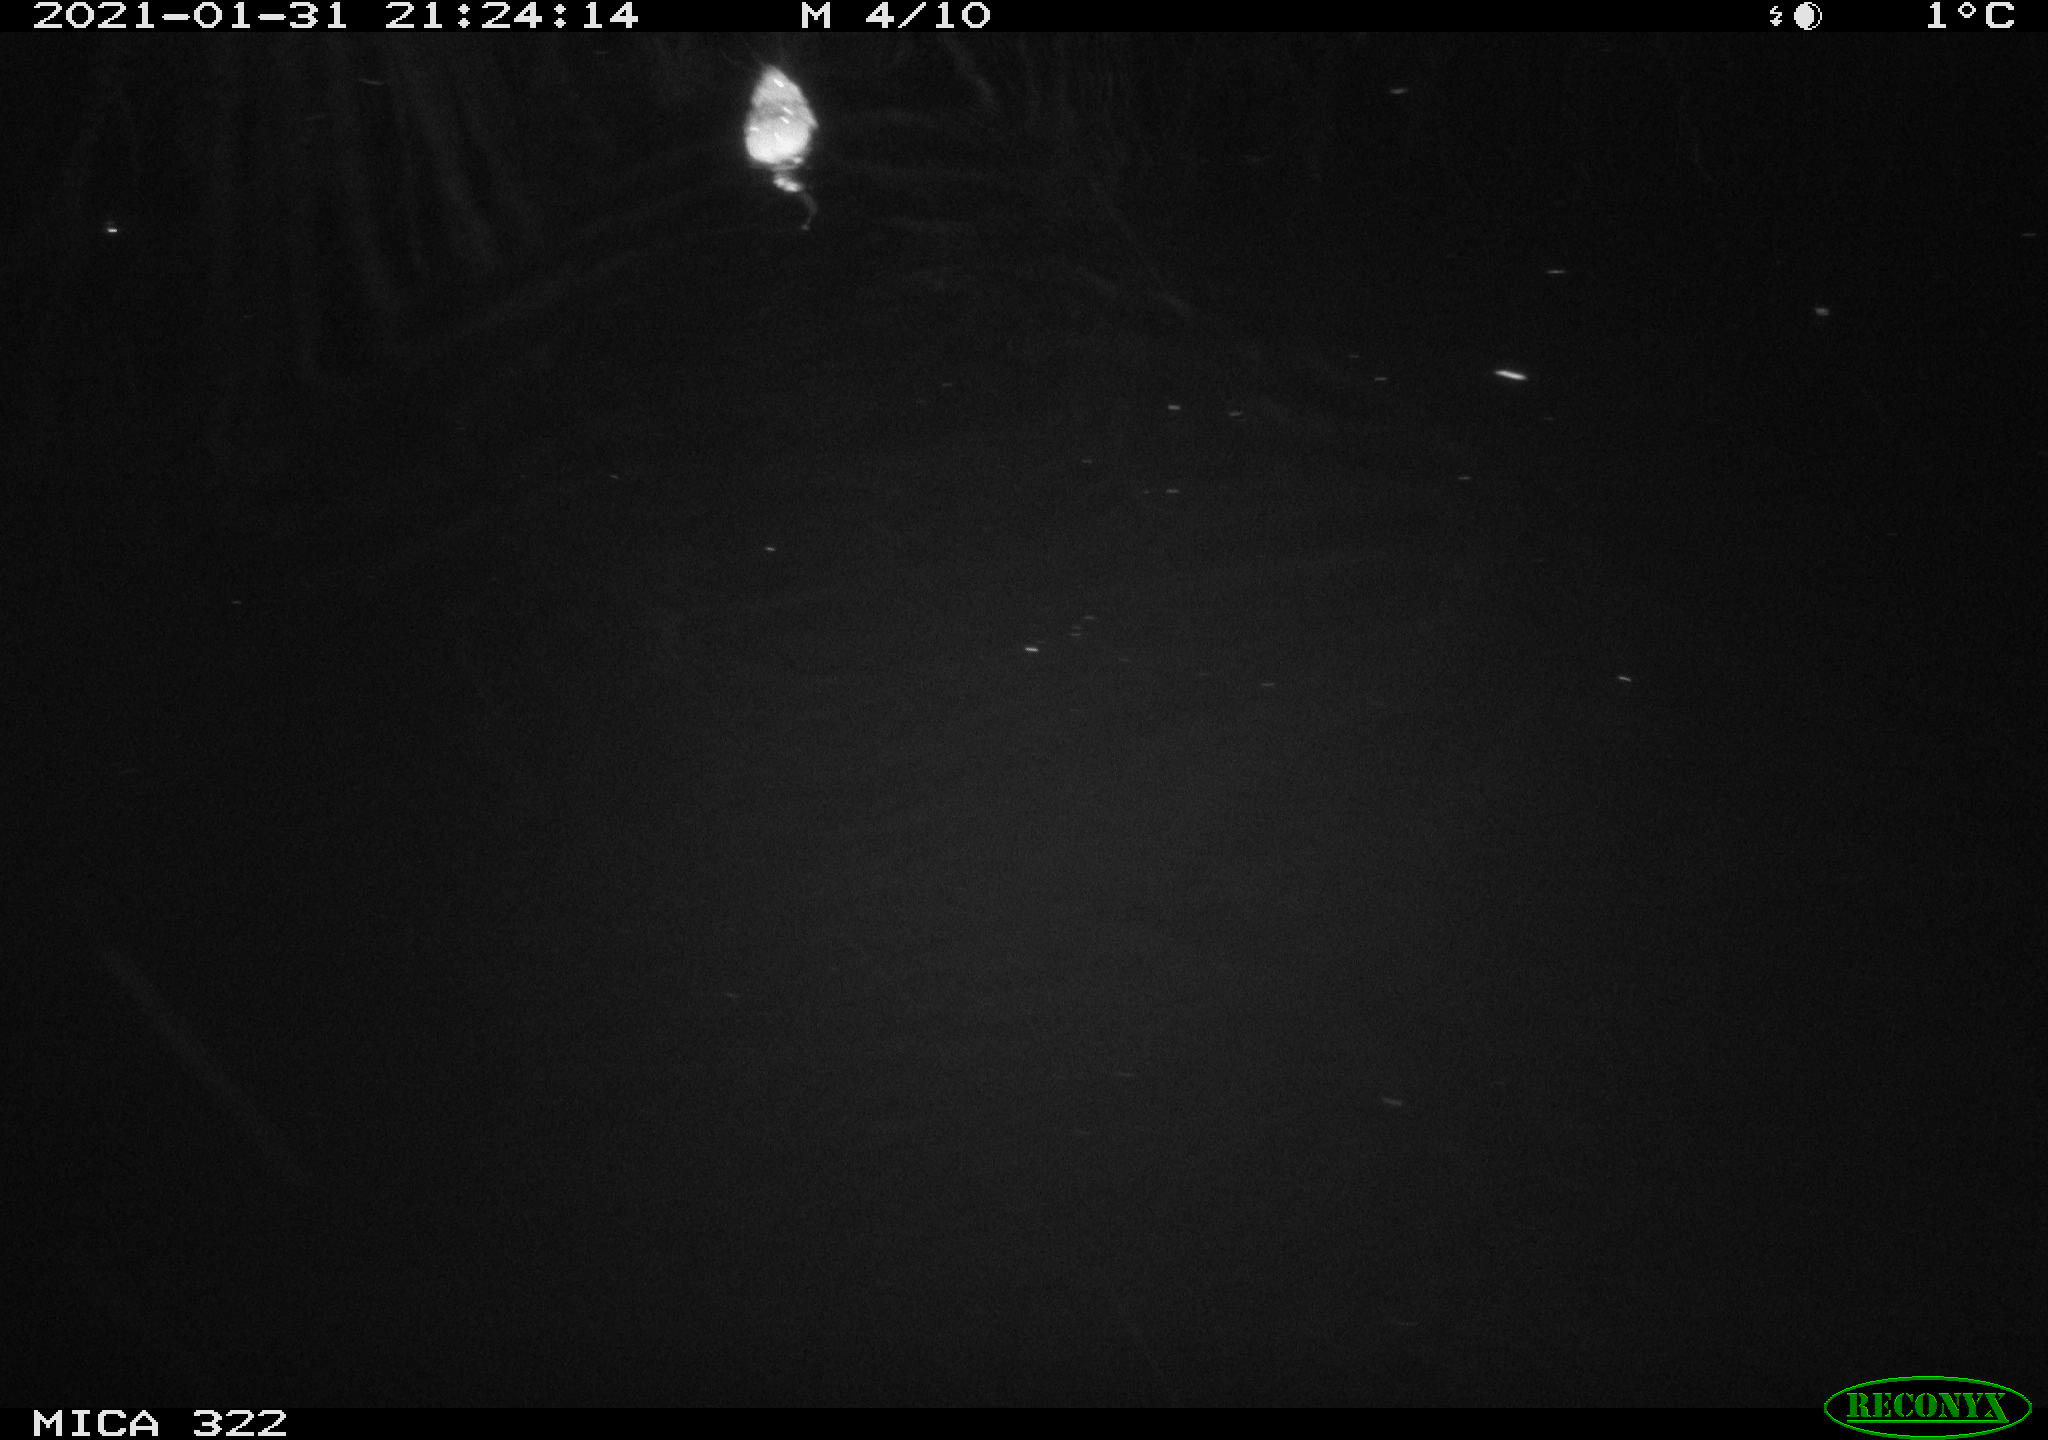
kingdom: Animalia
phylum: Chordata
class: Mammalia
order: Rodentia
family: Muridae
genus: Rattus
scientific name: Rattus norvegicus
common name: Brown rat
